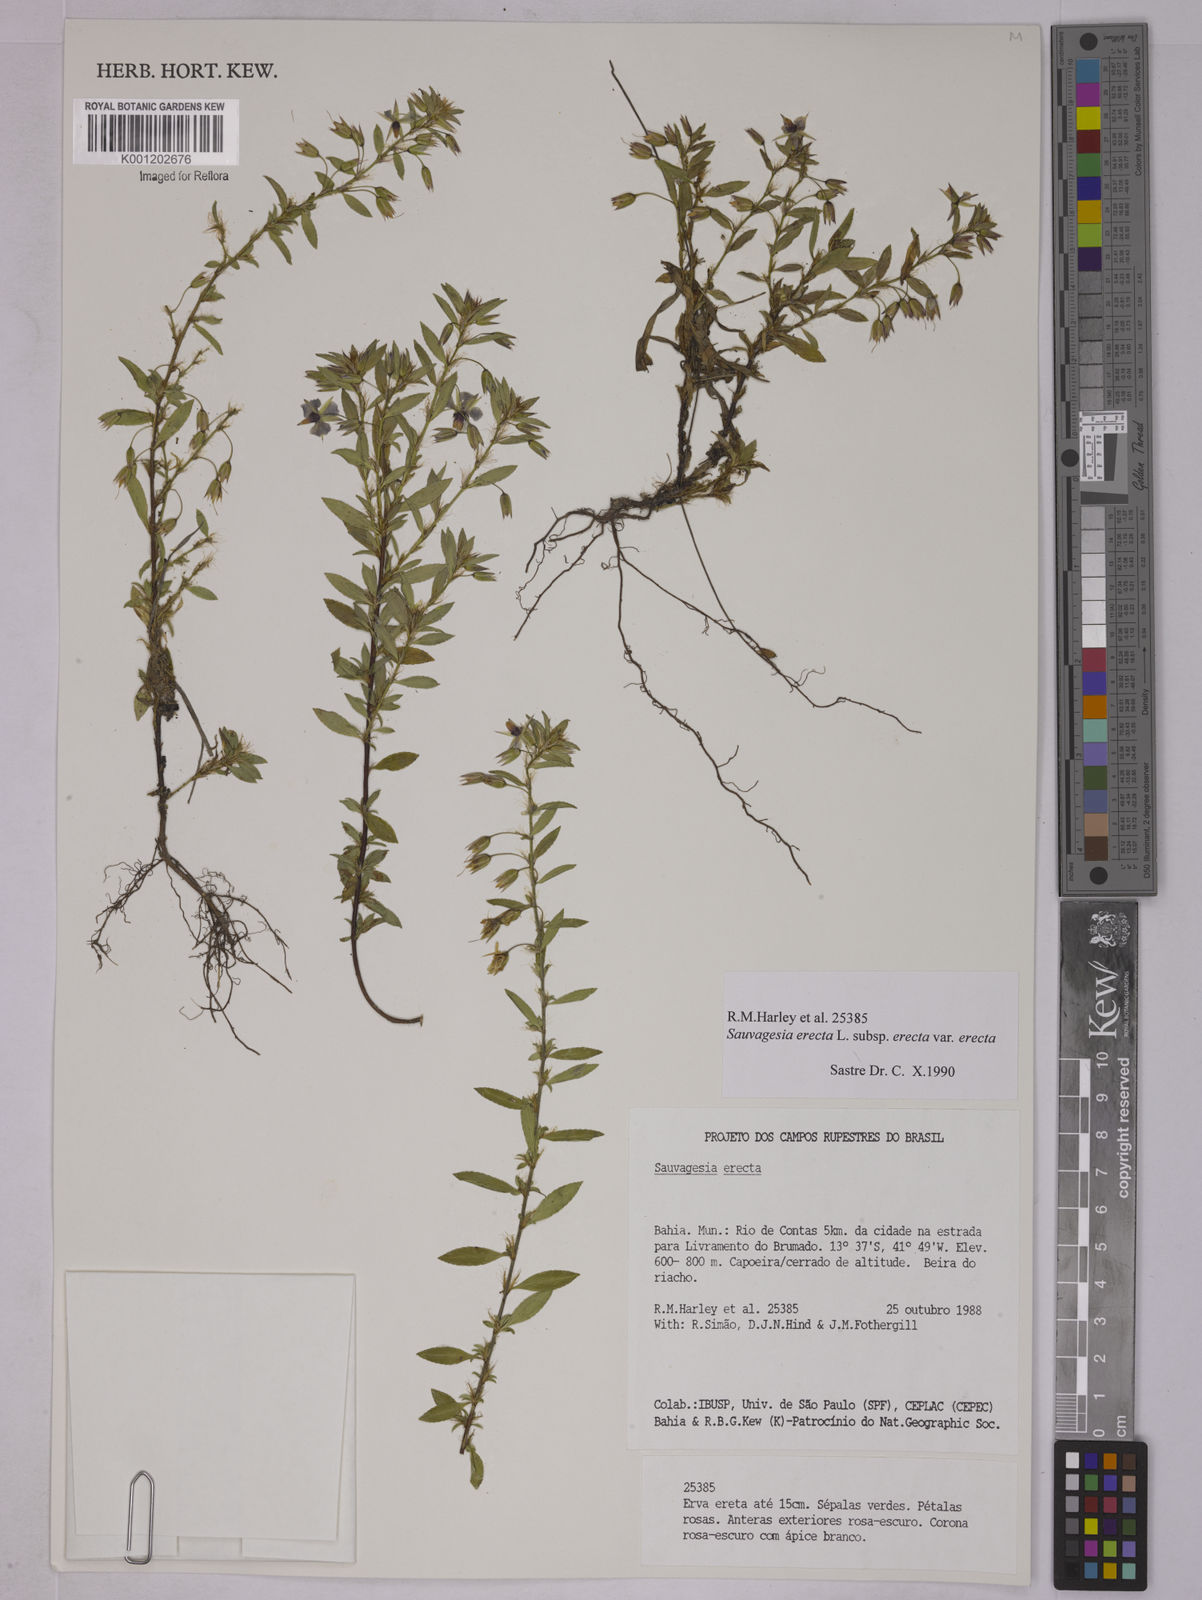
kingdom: Plantae
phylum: Tracheophyta
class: Magnoliopsida
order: Malpighiales
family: Ochnaceae
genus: Sauvagesia
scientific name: Sauvagesia erecta
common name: Creole tea
